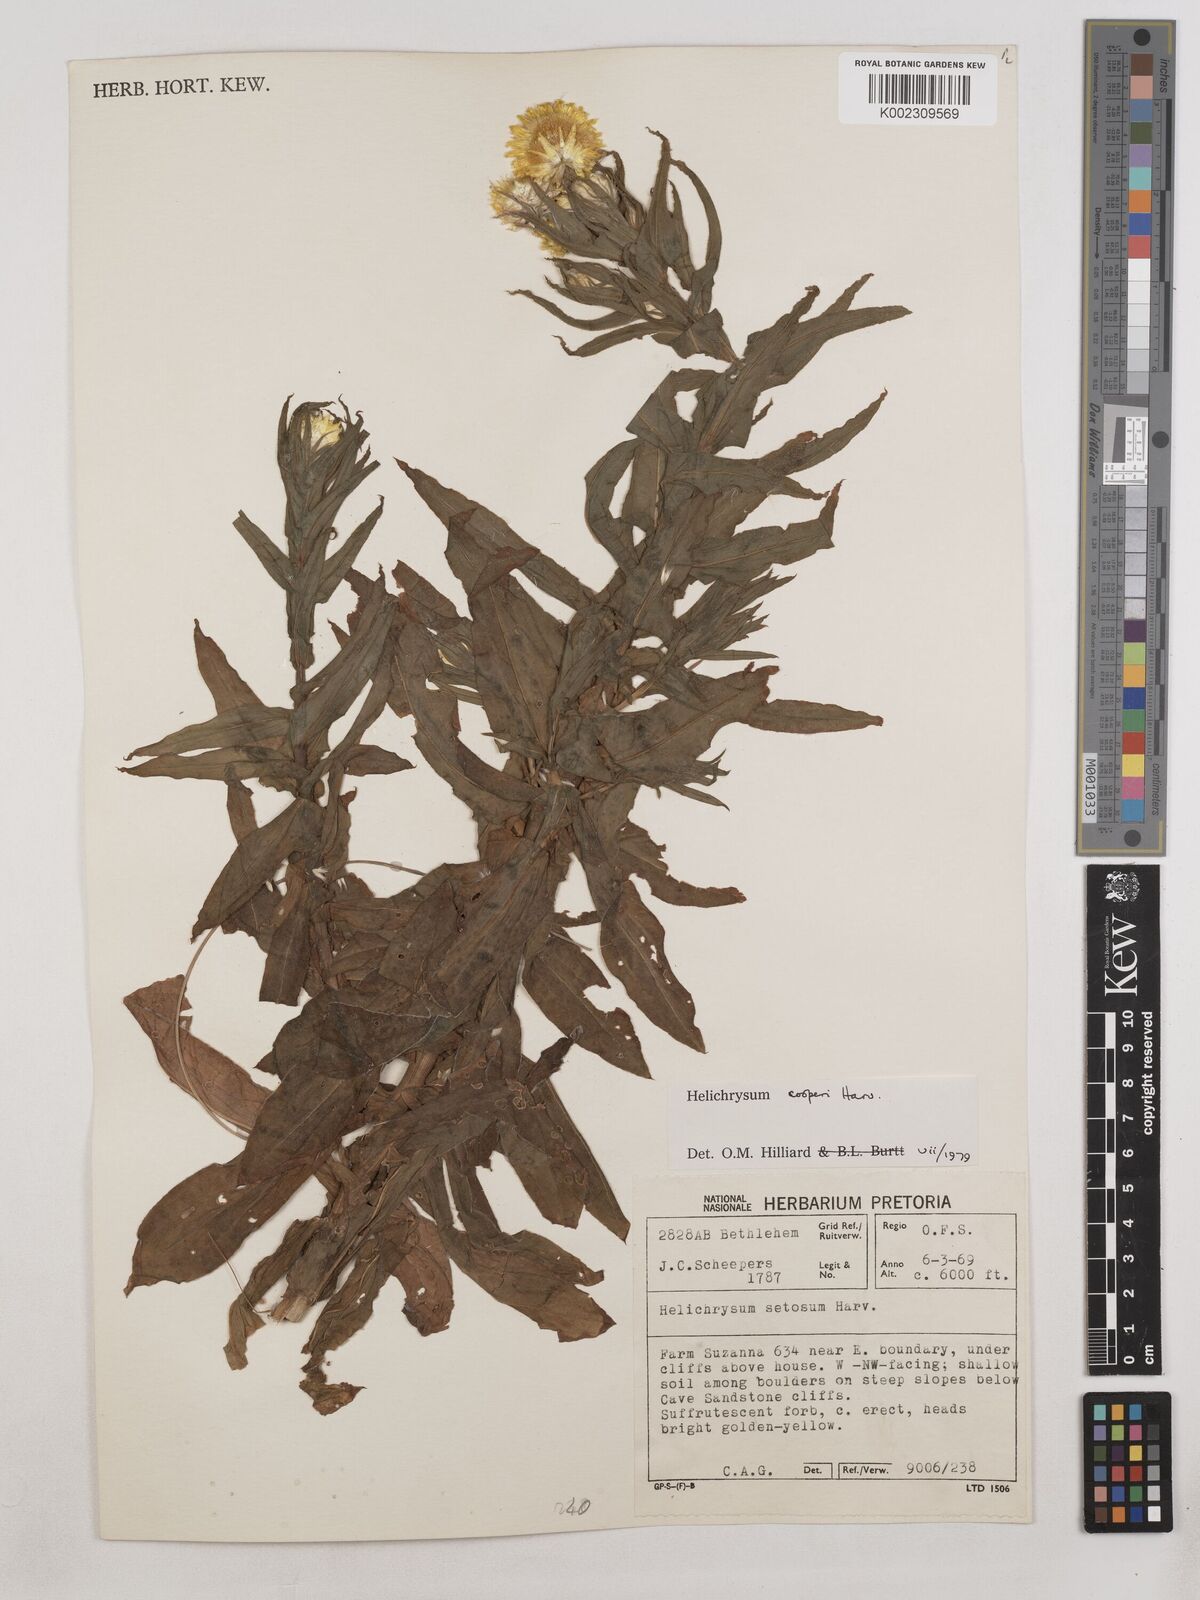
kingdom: Plantae
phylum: Tracheophyta
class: Magnoliopsida
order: Asterales
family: Asteraceae
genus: Helichrysum
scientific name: Helichrysum cooperi
